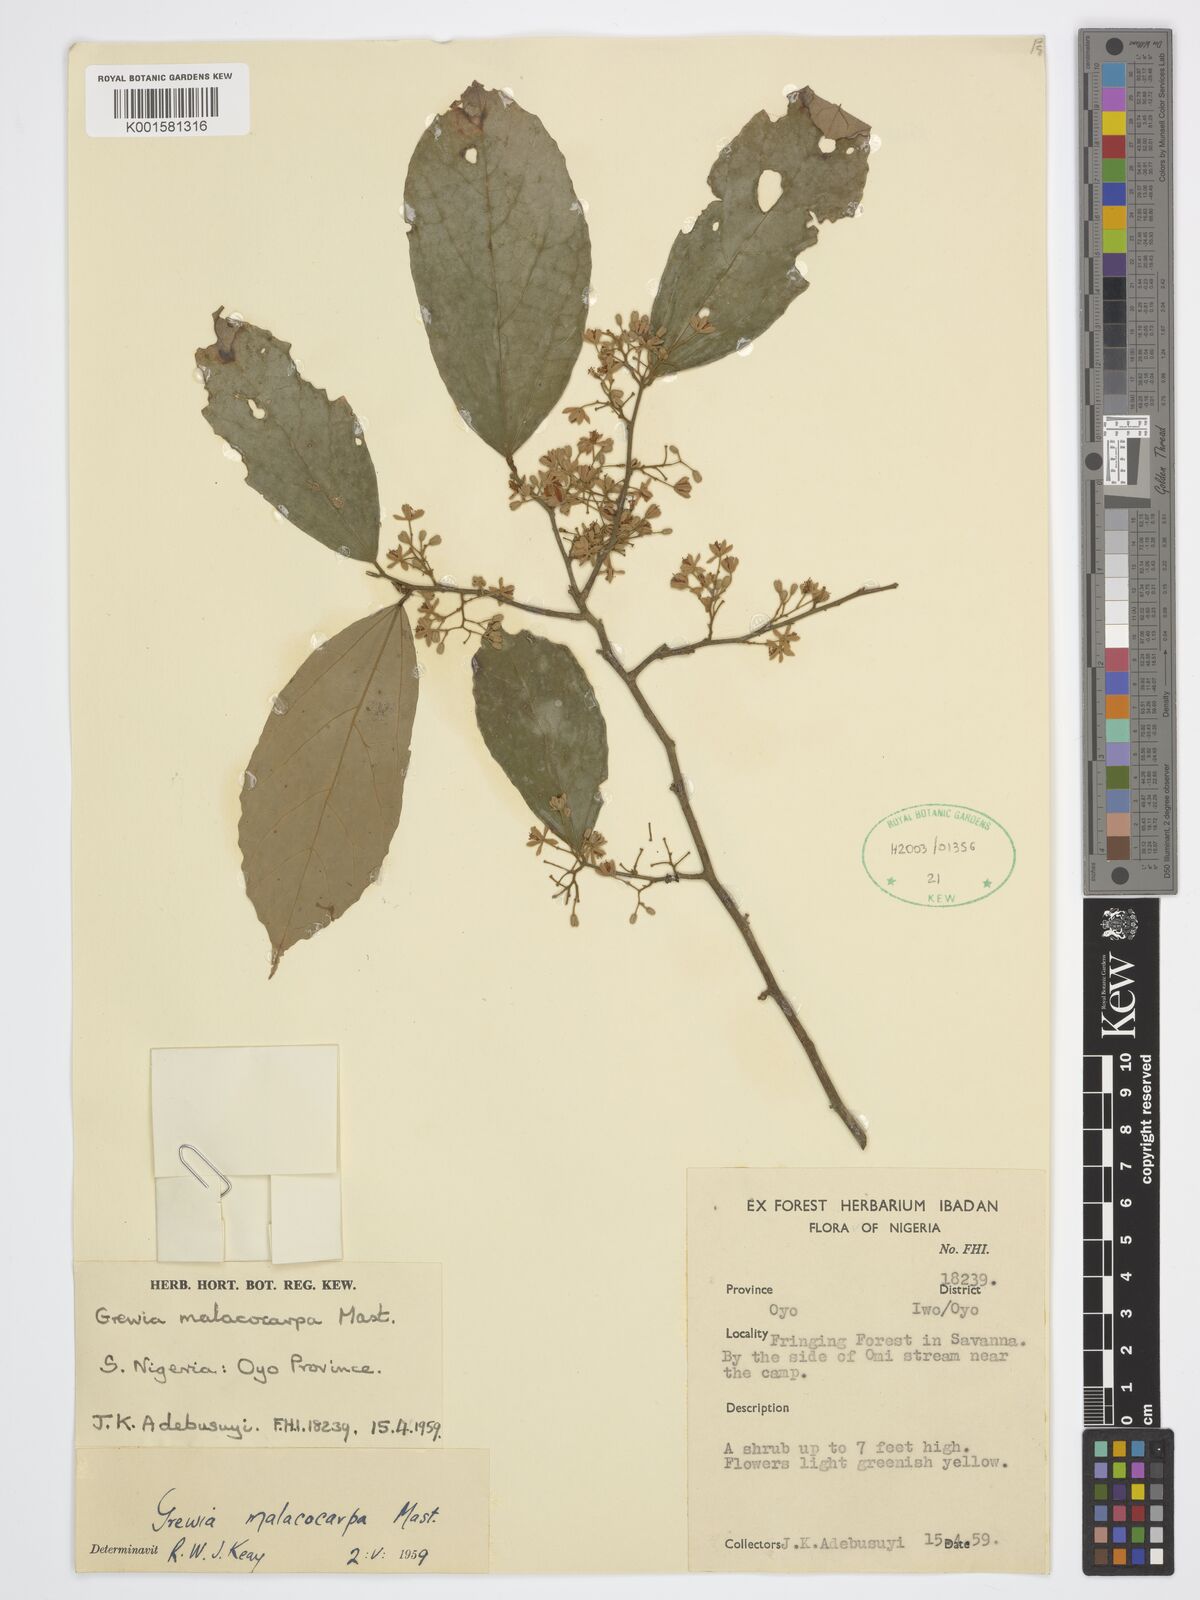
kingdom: Plantae
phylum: Tracheophyta
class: Magnoliopsida
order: Malvales
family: Malvaceae
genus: Microcos
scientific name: Microcos malacocarpa
